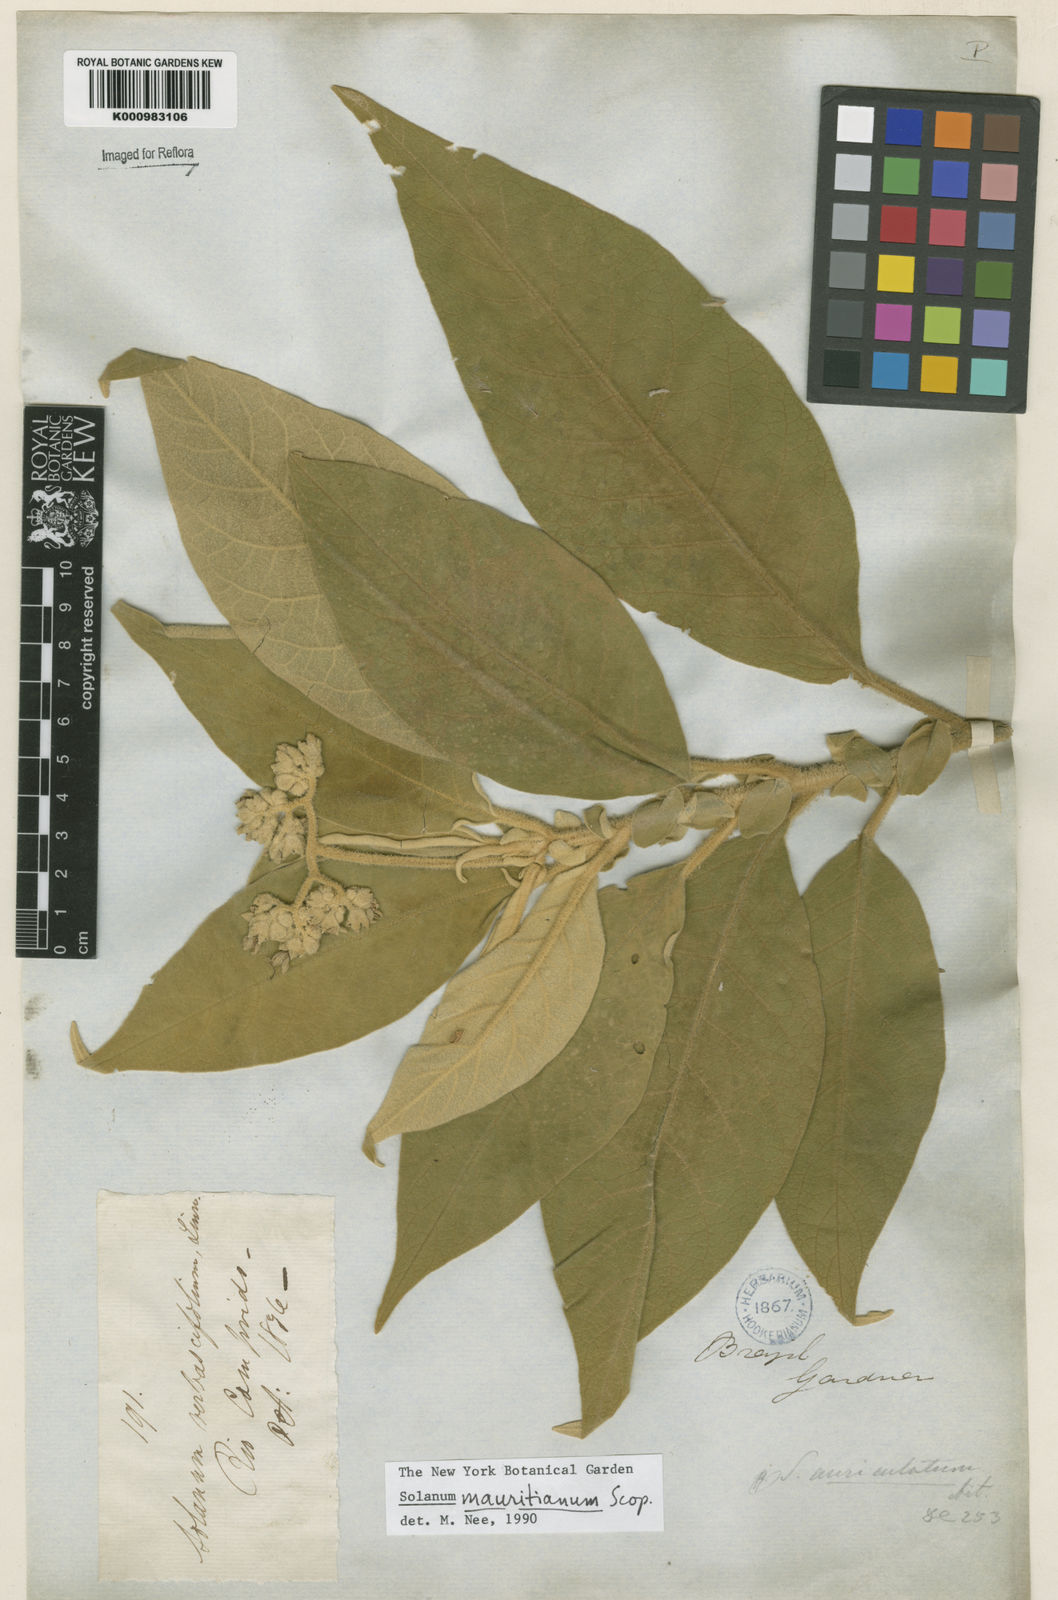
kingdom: Plantae
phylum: Tracheophyta
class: Magnoliopsida
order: Solanales
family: Solanaceae
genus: Solanum
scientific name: Solanum mauritianum
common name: Earleaf nightshade
